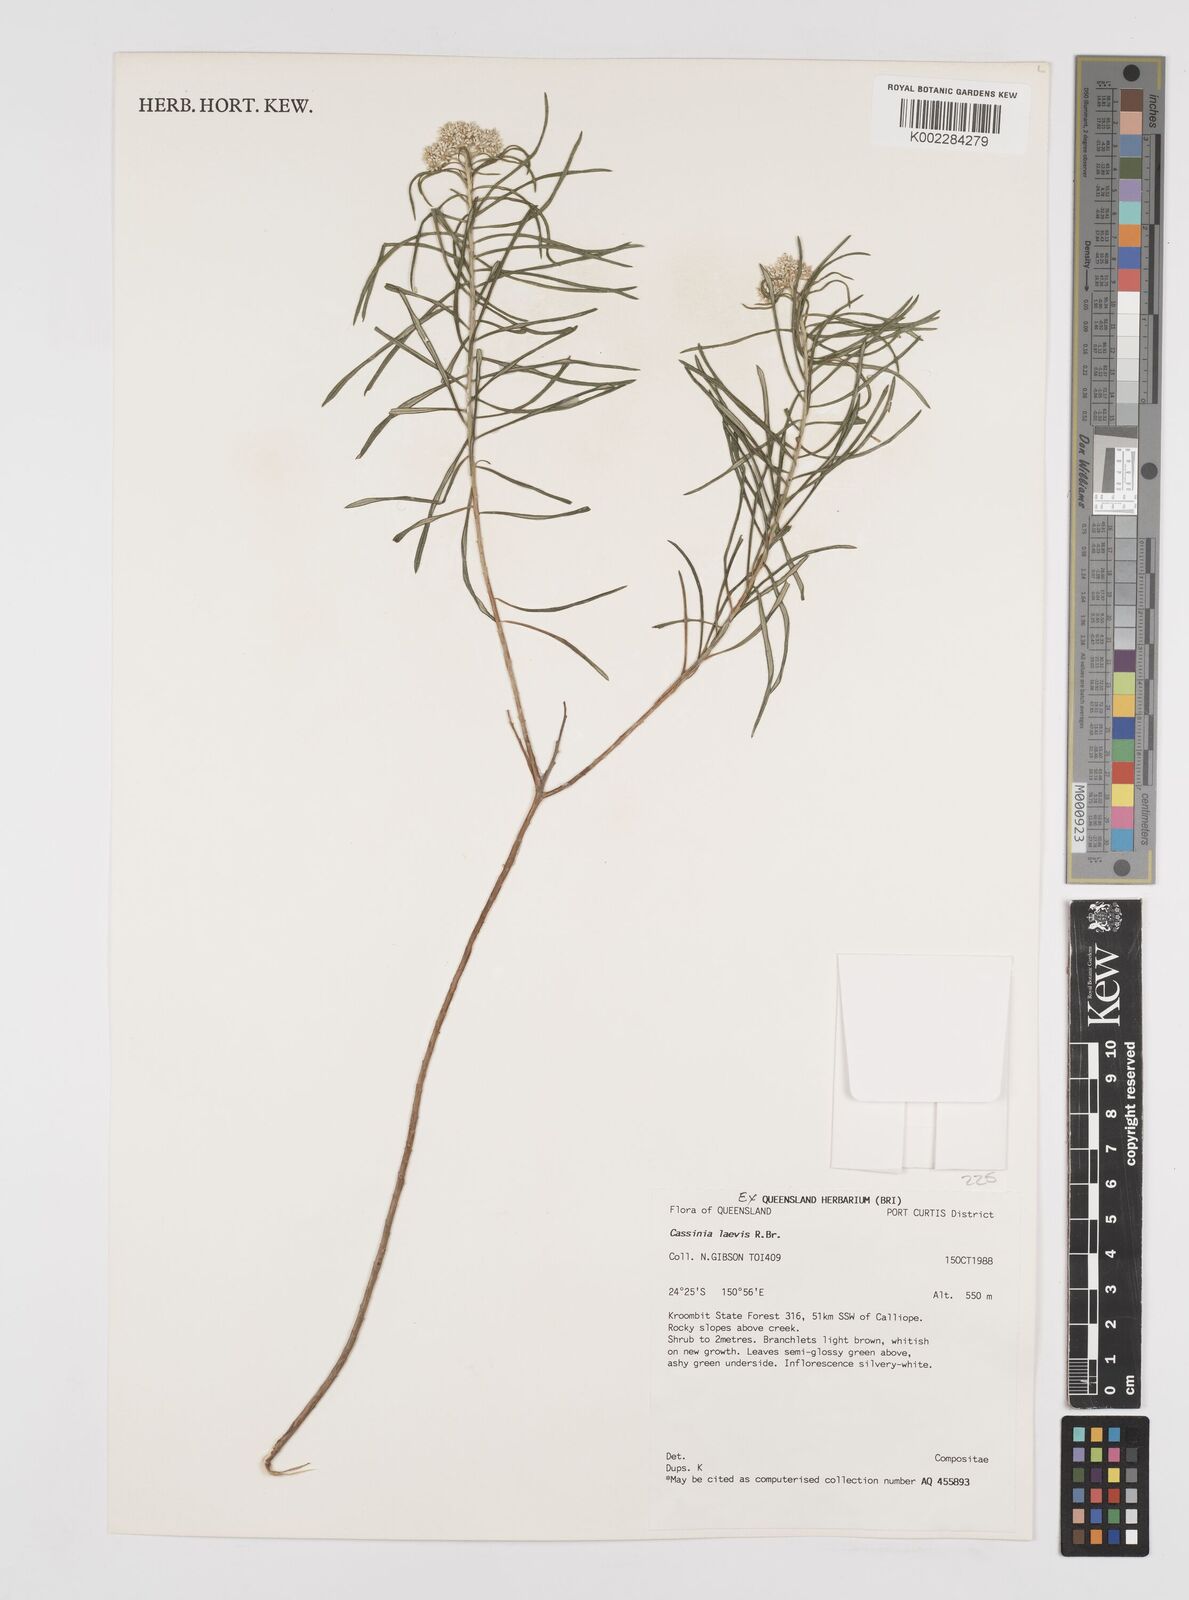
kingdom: Plantae
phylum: Tracheophyta
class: Magnoliopsida
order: Asterales
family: Asteraceae
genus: Cassinia
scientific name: Cassinia laevis
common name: Coughbush
